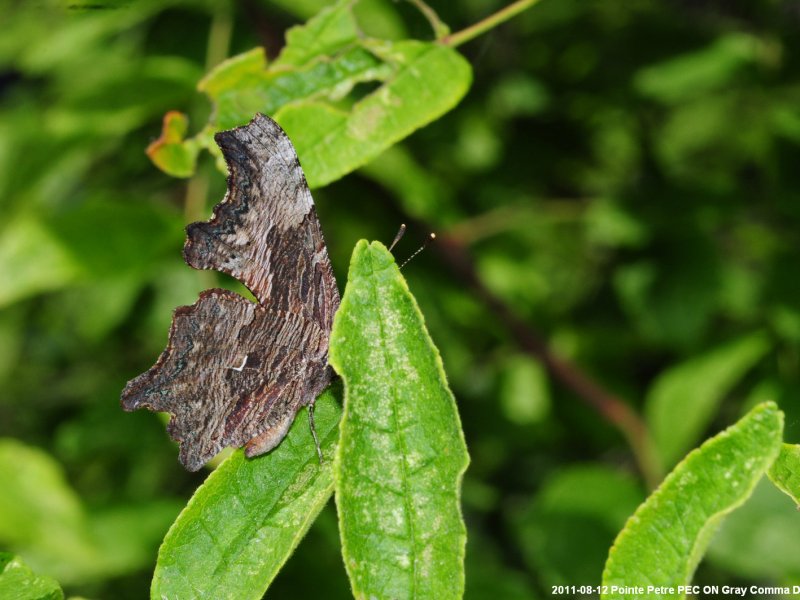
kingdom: Animalia
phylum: Arthropoda
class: Insecta
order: Lepidoptera
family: Nymphalidae
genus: Polygonia
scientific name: Polygonia progne
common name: Gray Comma
